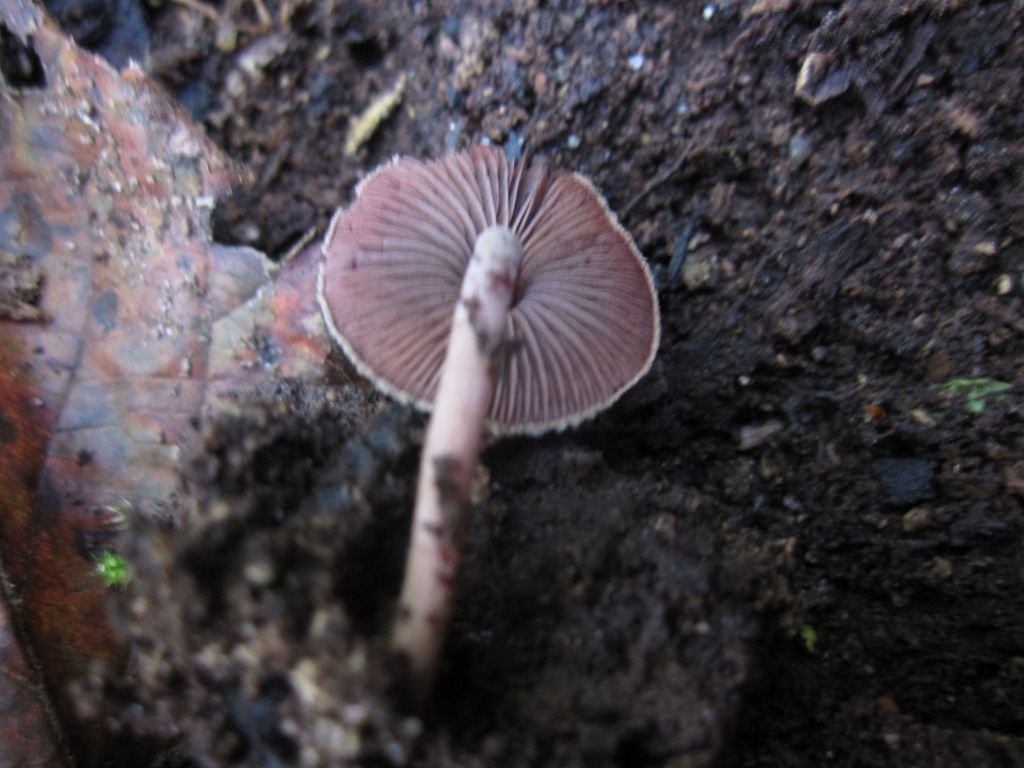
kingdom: Fungi
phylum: Basidiomycota
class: Agaricomycetes
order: Agaricales
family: Agaricaceae
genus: Melanophyllum
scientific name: Melanophyllum haematospermum
